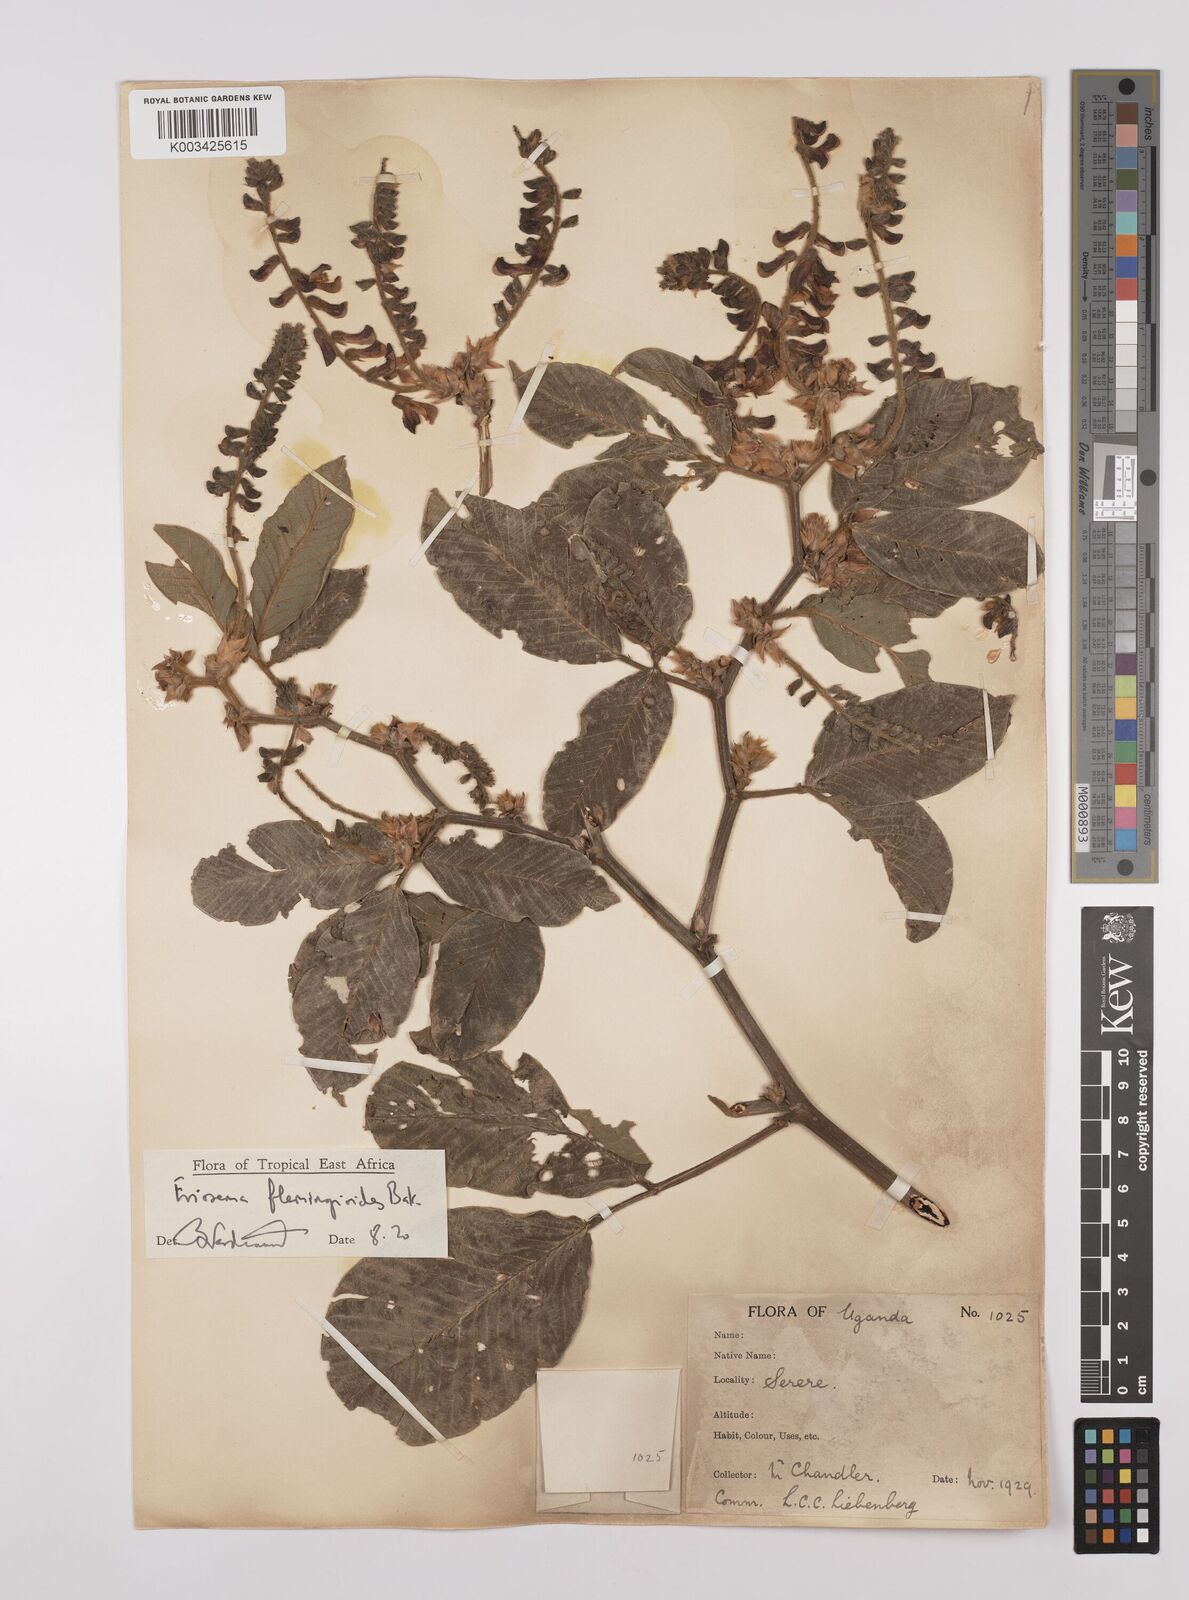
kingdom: Plantae
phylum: Tracheophyta
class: Magnoliopsida
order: Fabales
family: Fabaceae
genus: Eriosema
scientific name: Eriosema flemingioides
